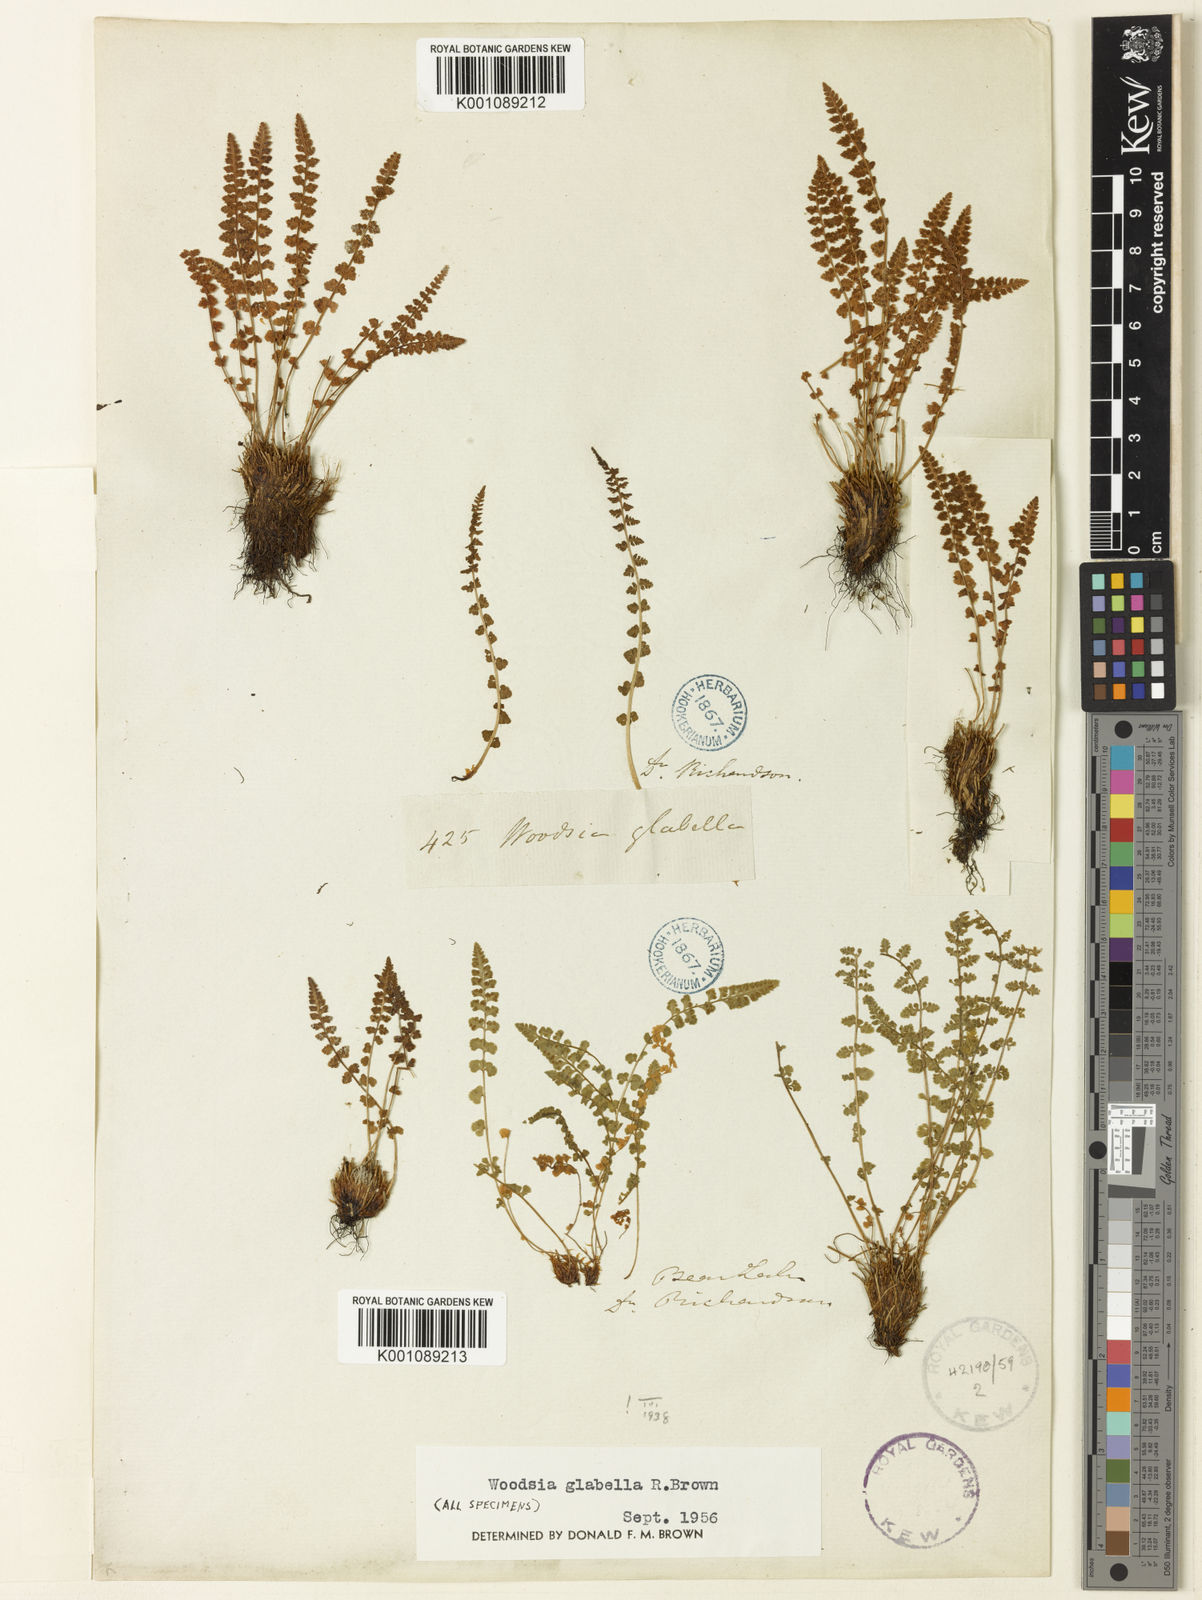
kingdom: Plantae
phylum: Tracheophyta
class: Polypodiopsida
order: Polypodiales
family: Woodsiaceae
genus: Woodsia
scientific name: Woodsia
